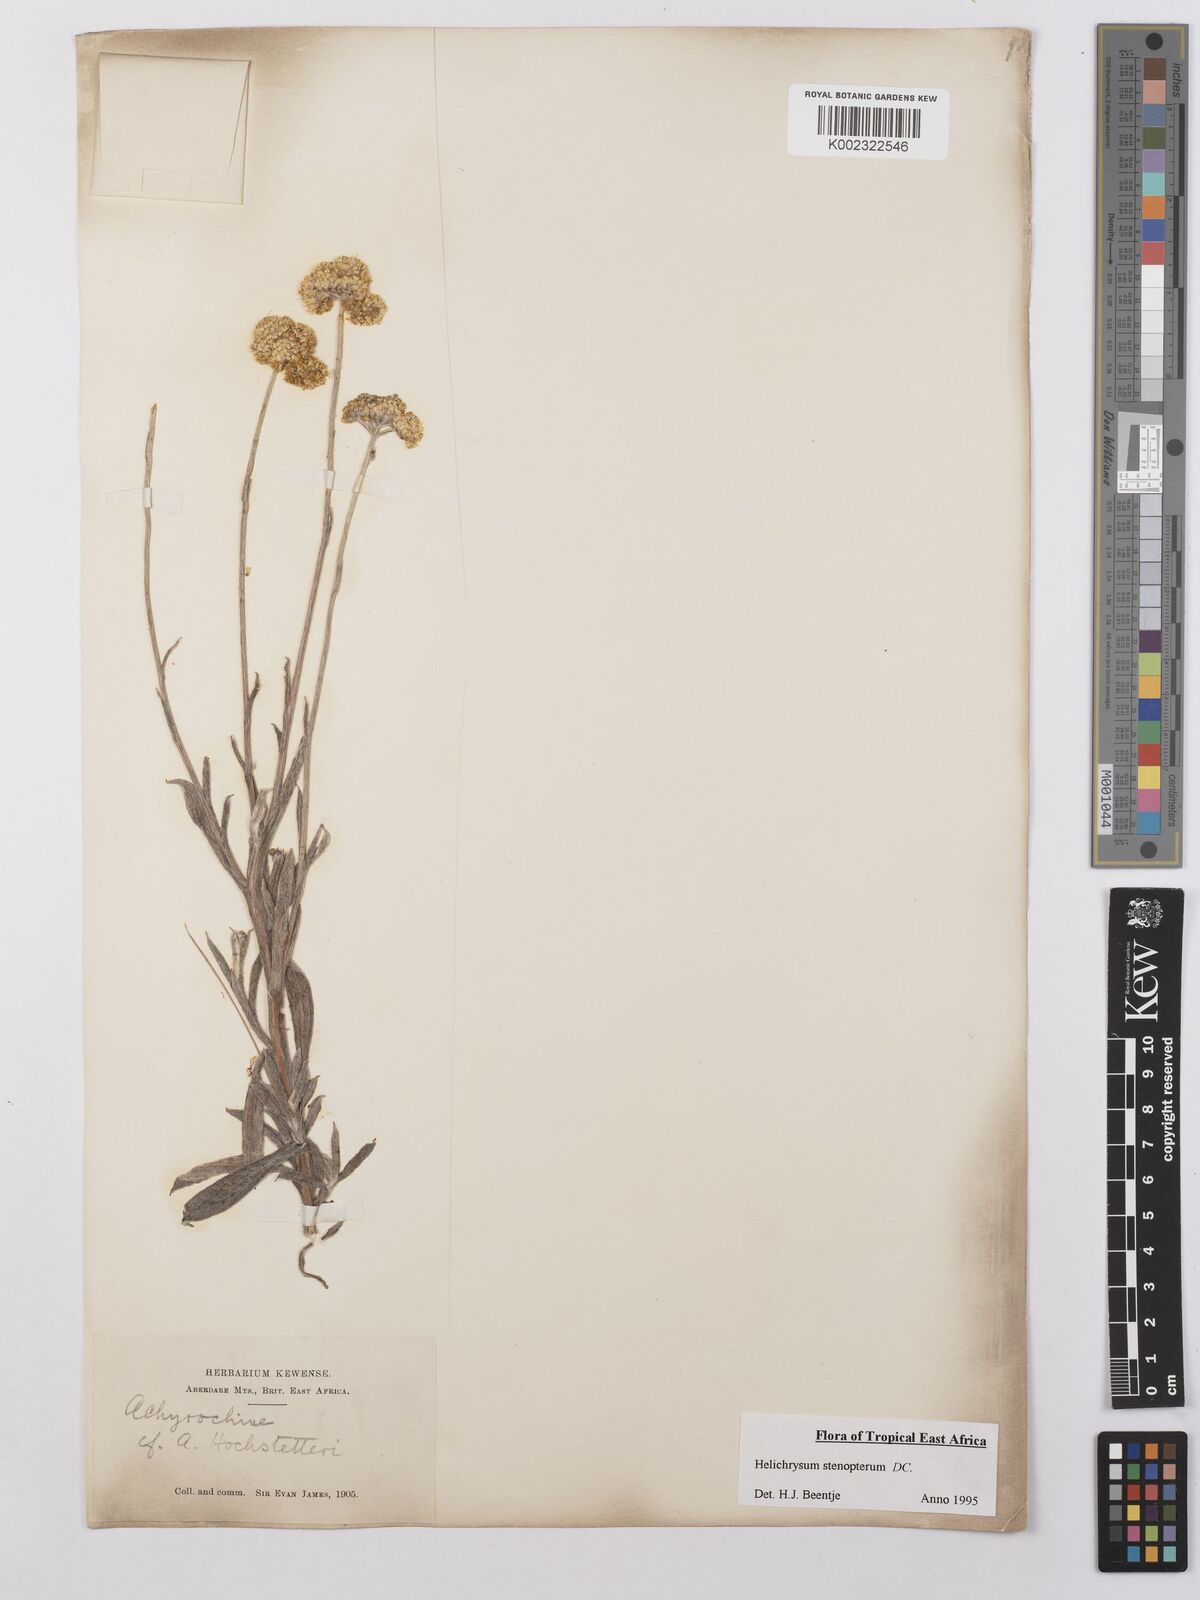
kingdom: Plantae
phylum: Tracheophyta
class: Magnoliopsida
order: Asterales
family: Asteraceae
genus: Helichrysum
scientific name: Helichrysum stenopterum
